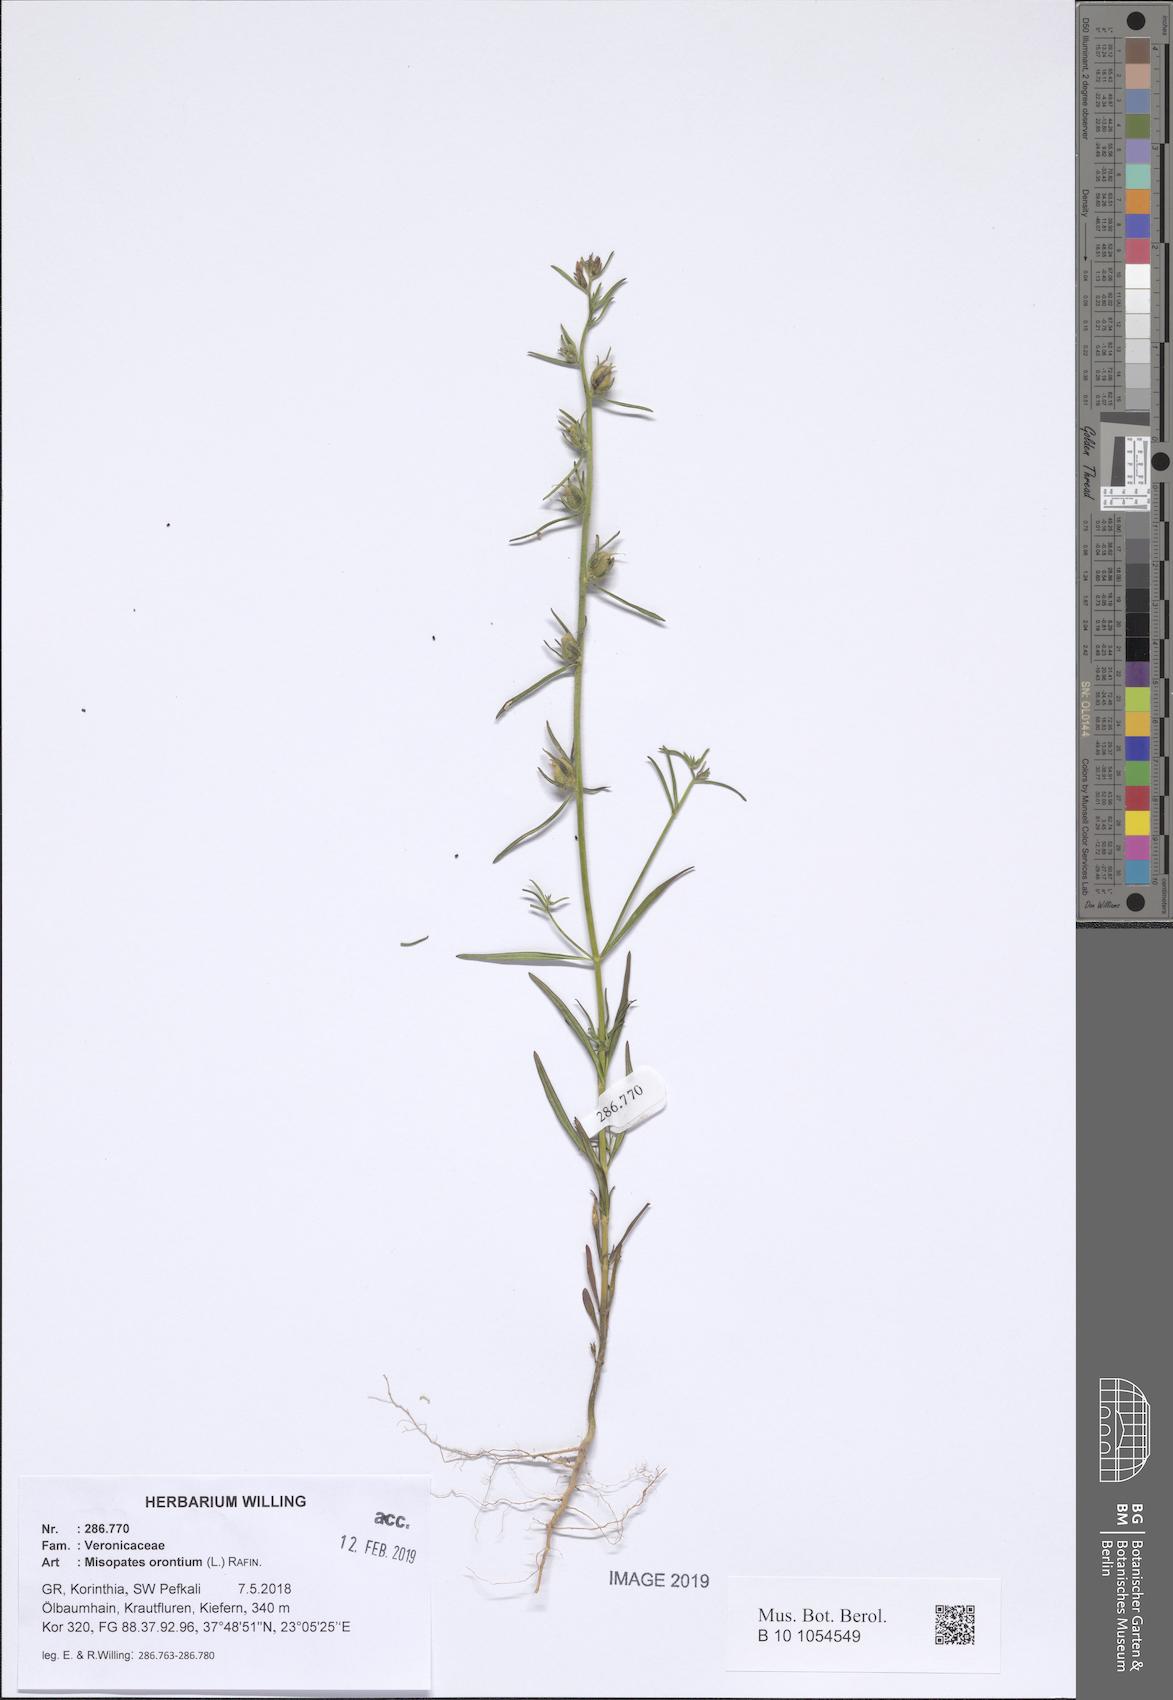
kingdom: Plantae
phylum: Tracheophyta
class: Magnoliopsida
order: Lamiales
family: Plantaginaceae
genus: Misopates
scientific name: Misopates orontium
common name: Weasel's-snout
